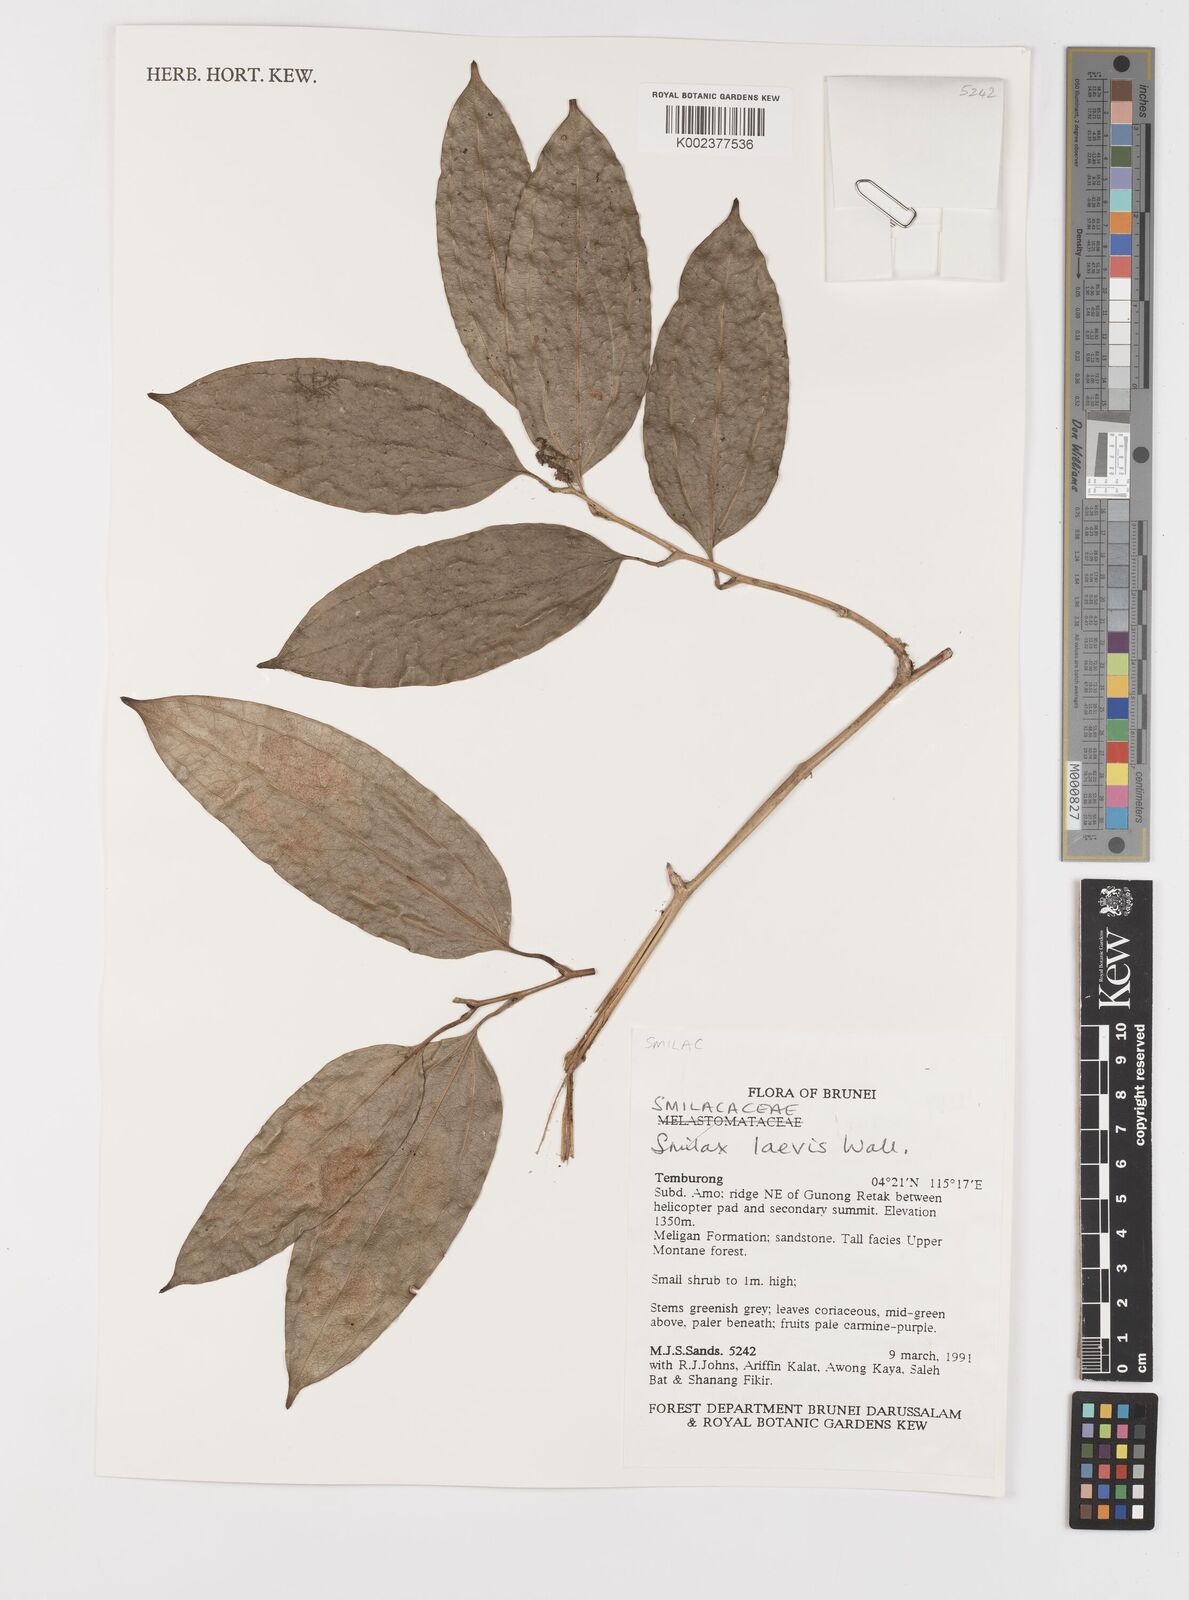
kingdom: Plantae
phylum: Tracheophyta
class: Liliopsida
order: Liliales
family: Smilacaceae
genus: Smilax
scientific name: Smilax laevis
